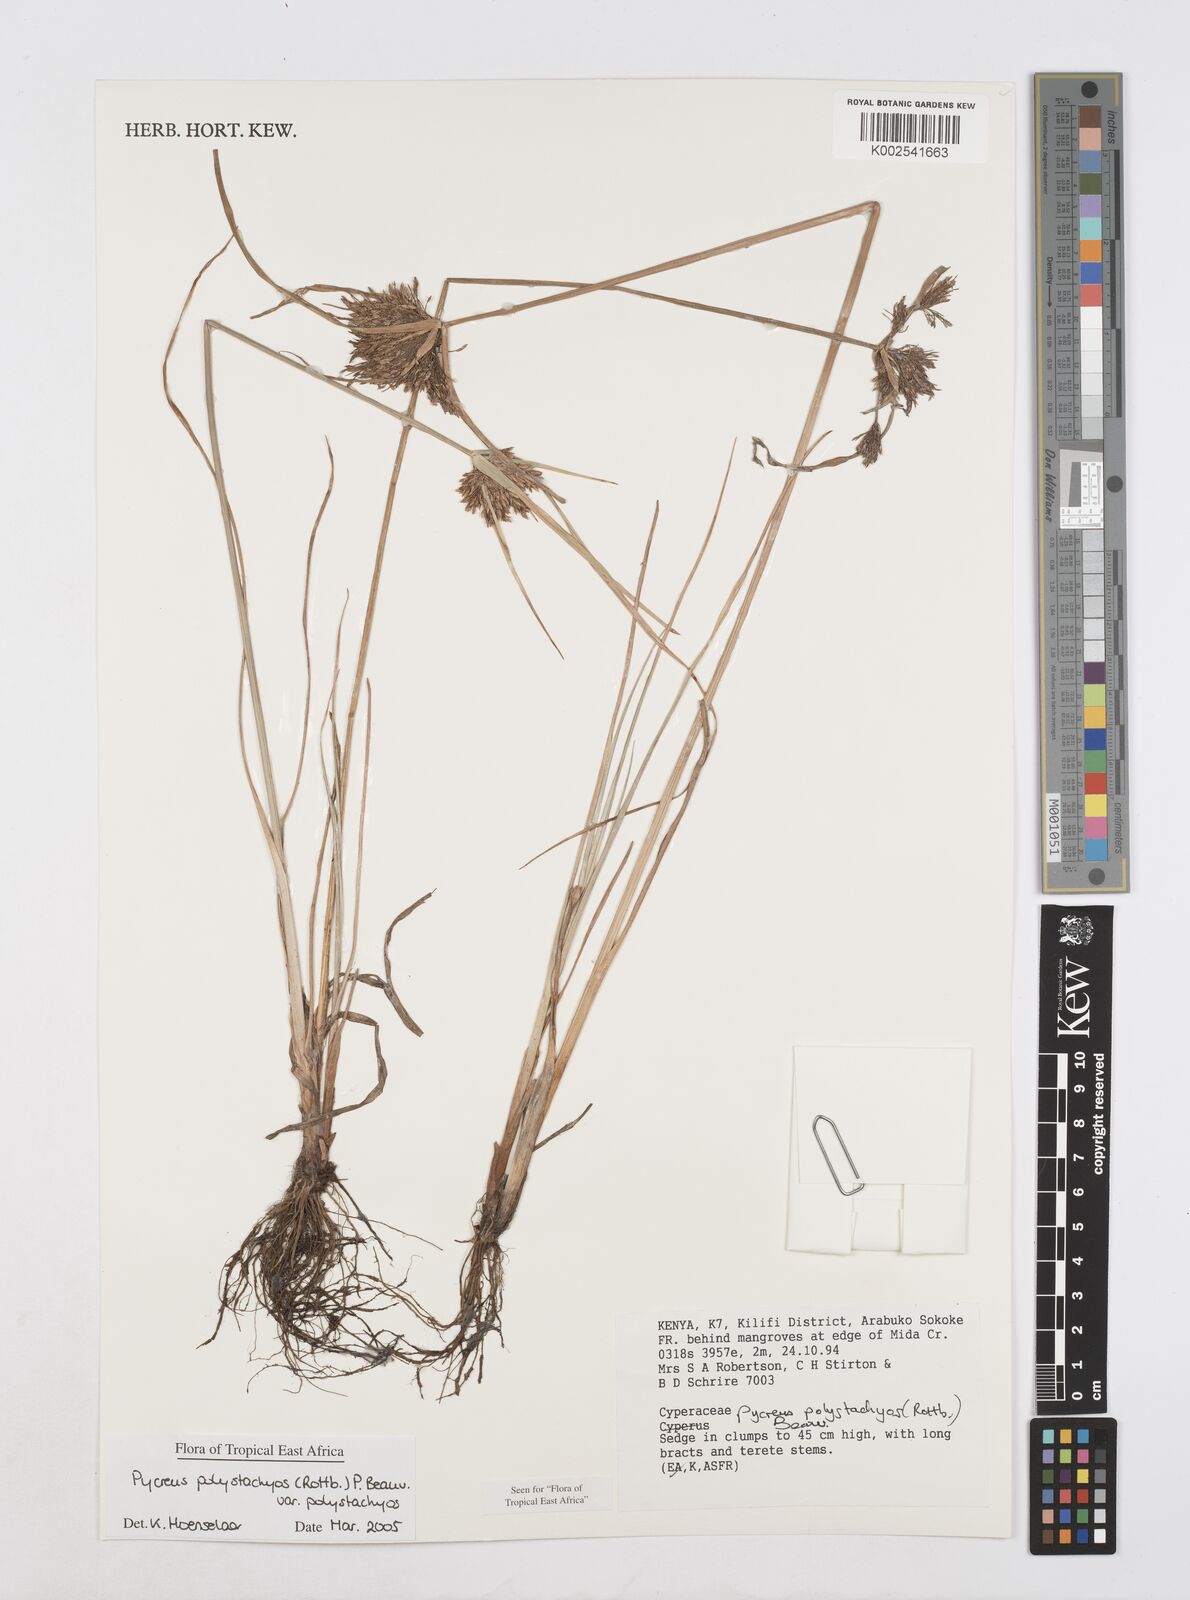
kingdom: Plantae
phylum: Tracheophyta
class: Liliopsida
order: Poales
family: Cyperaceae
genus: Cyperus
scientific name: Cyperus polystachyos
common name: Bunchy flat sedge
